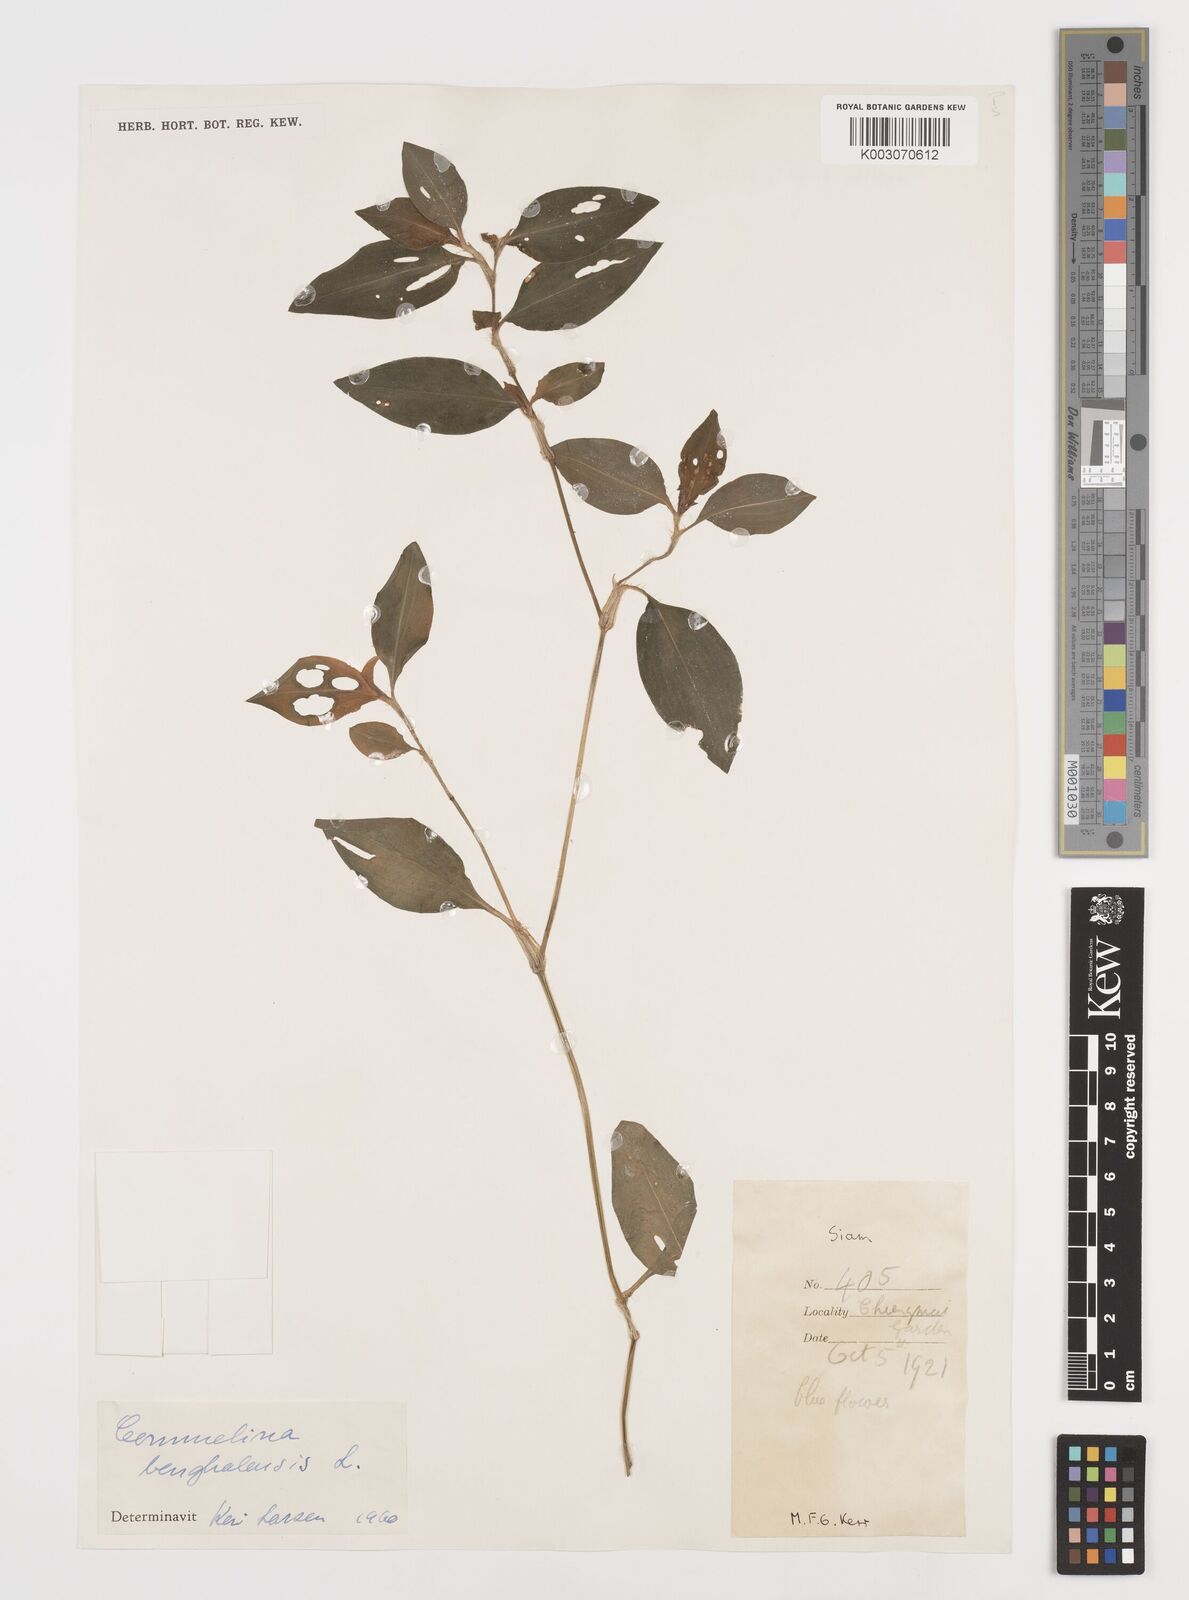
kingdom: Plantae
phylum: Tracheophyta
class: Liliopsida
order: Commelinales
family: Commelinaceae
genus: Commelina
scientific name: Commelina benghalensis
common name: Jio
